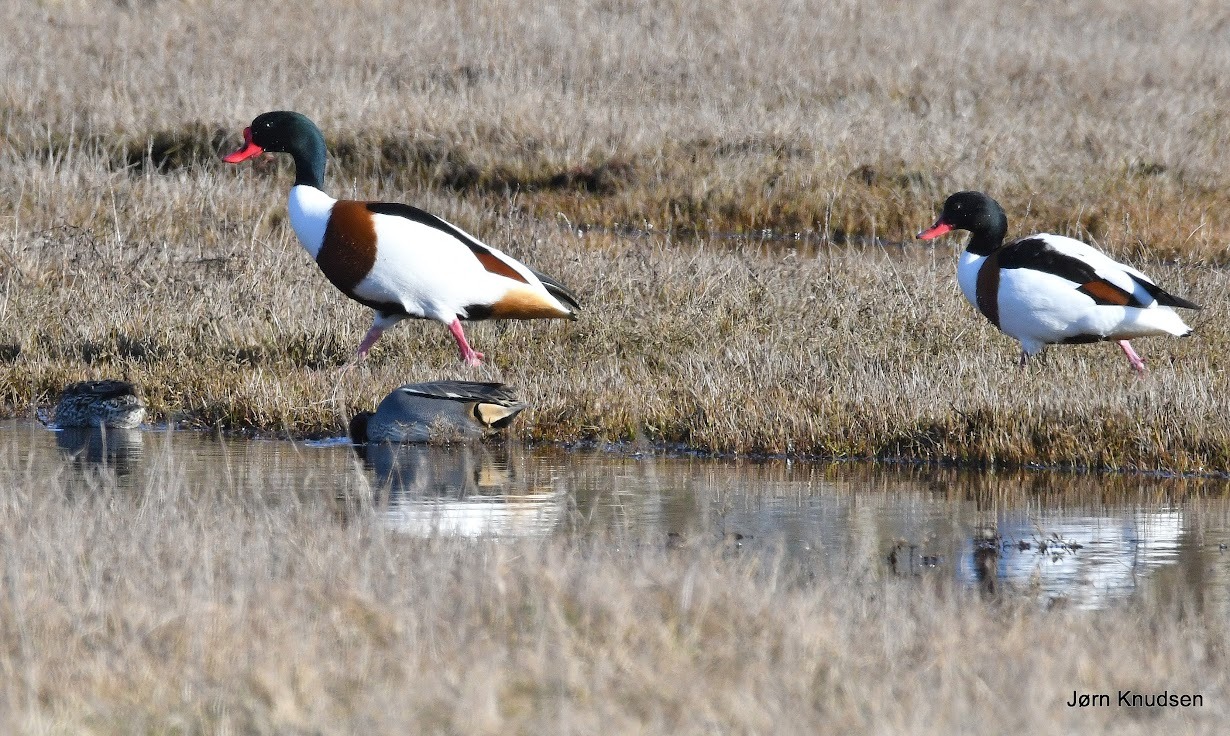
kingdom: Animalia
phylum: Chordata
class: Aves
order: Anseriformes
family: Anatidae
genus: Tadorna
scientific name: Tadorna tadorna
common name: Gravand
